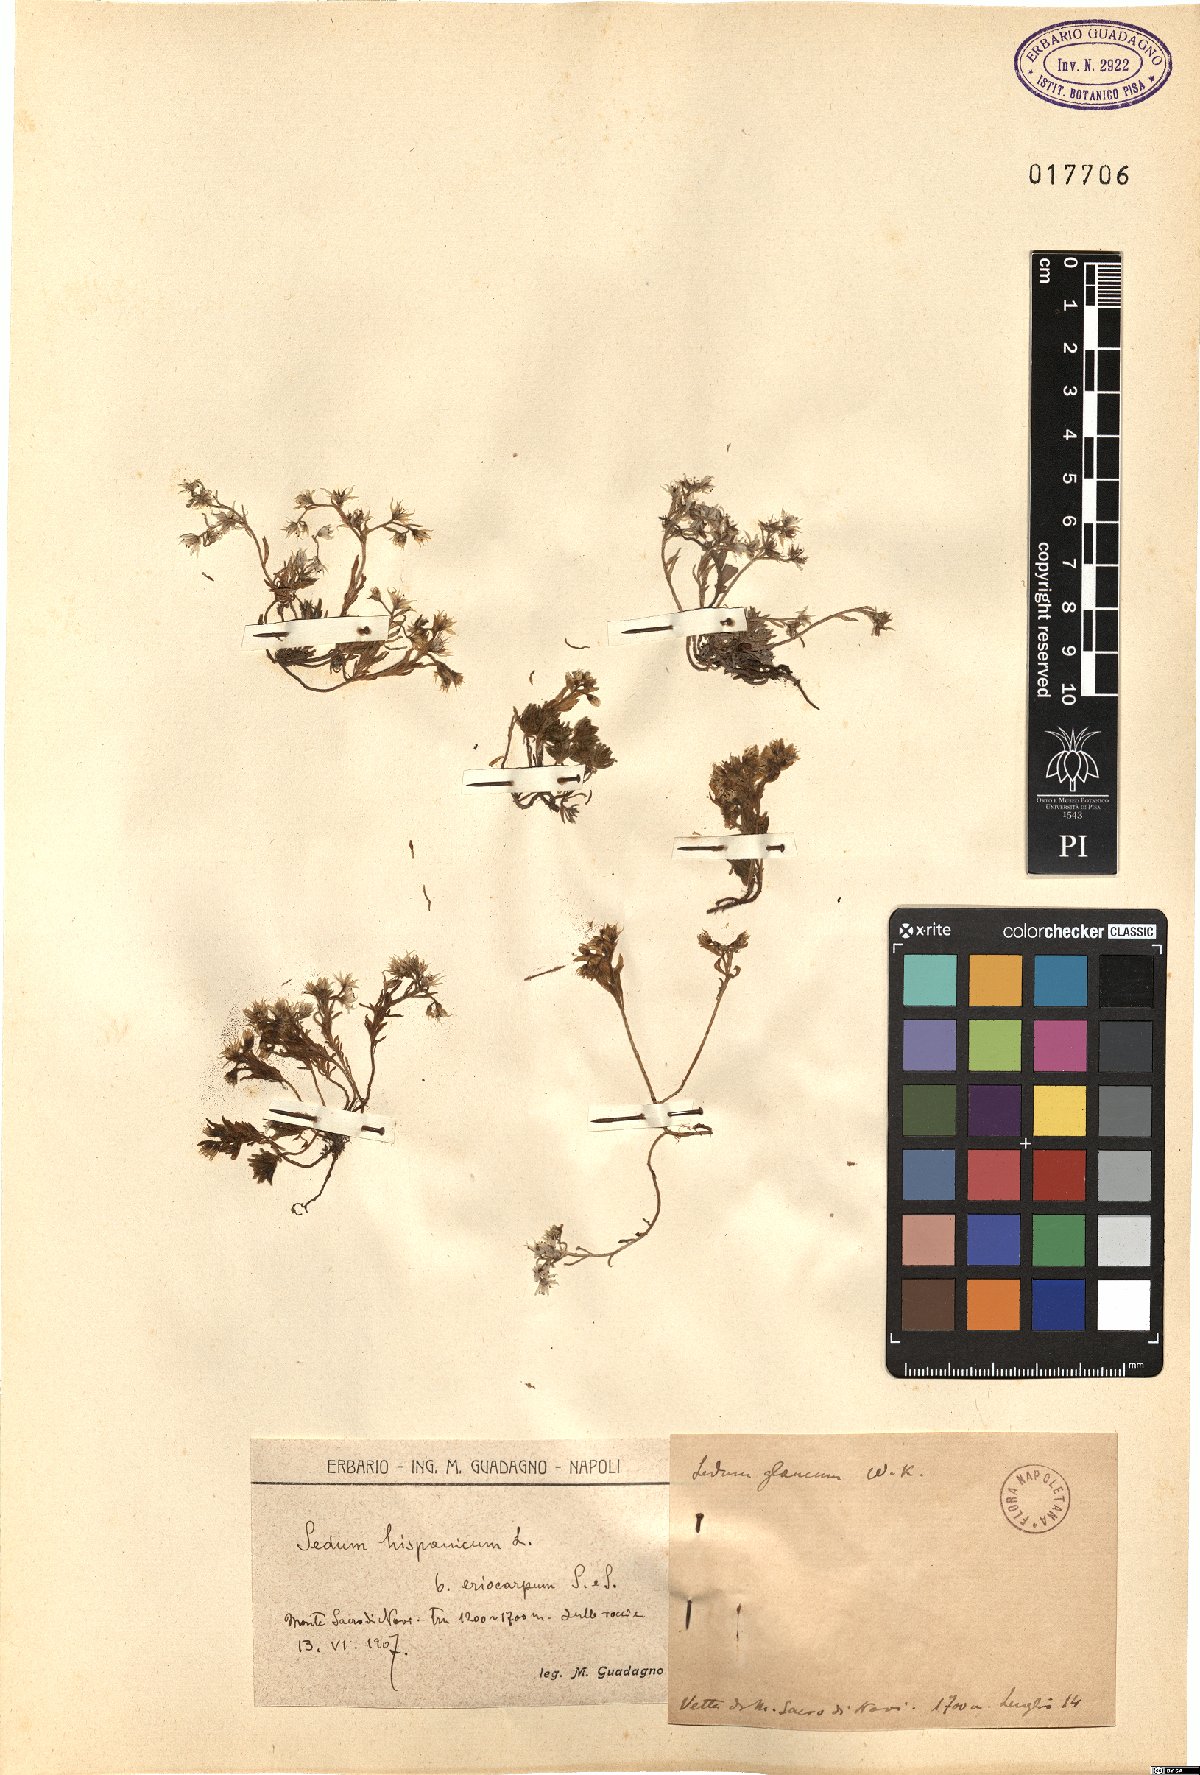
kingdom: Plantae
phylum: Tracheophyta
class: Magnoliopsida
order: Saxifragales
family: Crassulaceae
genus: Sedum
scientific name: Sedum hispanicum
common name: Spanish stonecrop
